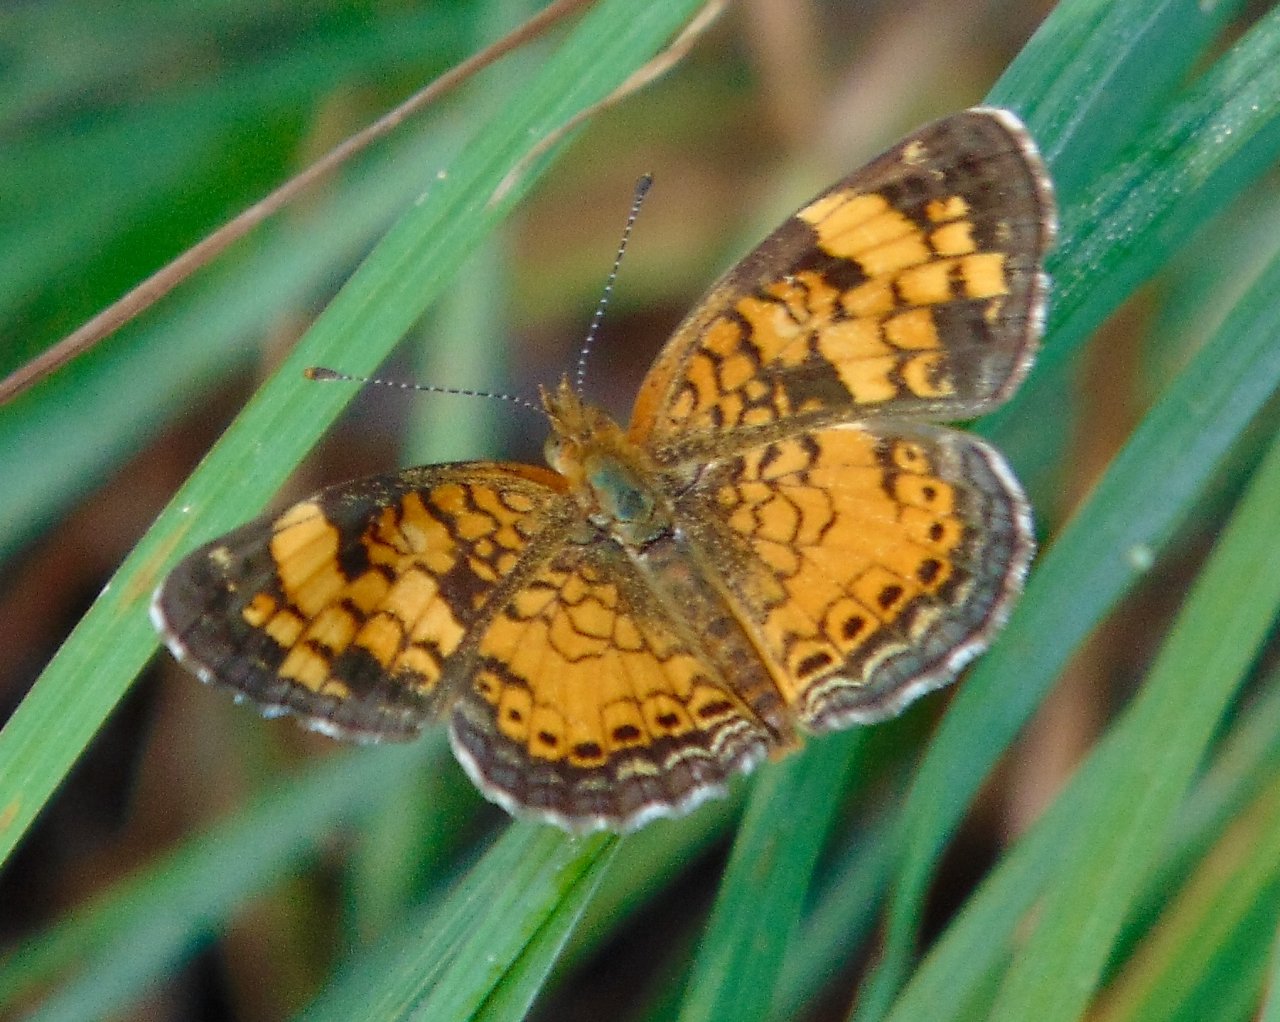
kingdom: Animalia
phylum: Arthropoda
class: Insecta
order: Lepidoptera
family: Nymphalidae
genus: Phyciodes
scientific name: Phyciodes tharos
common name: Pearl Crescent
